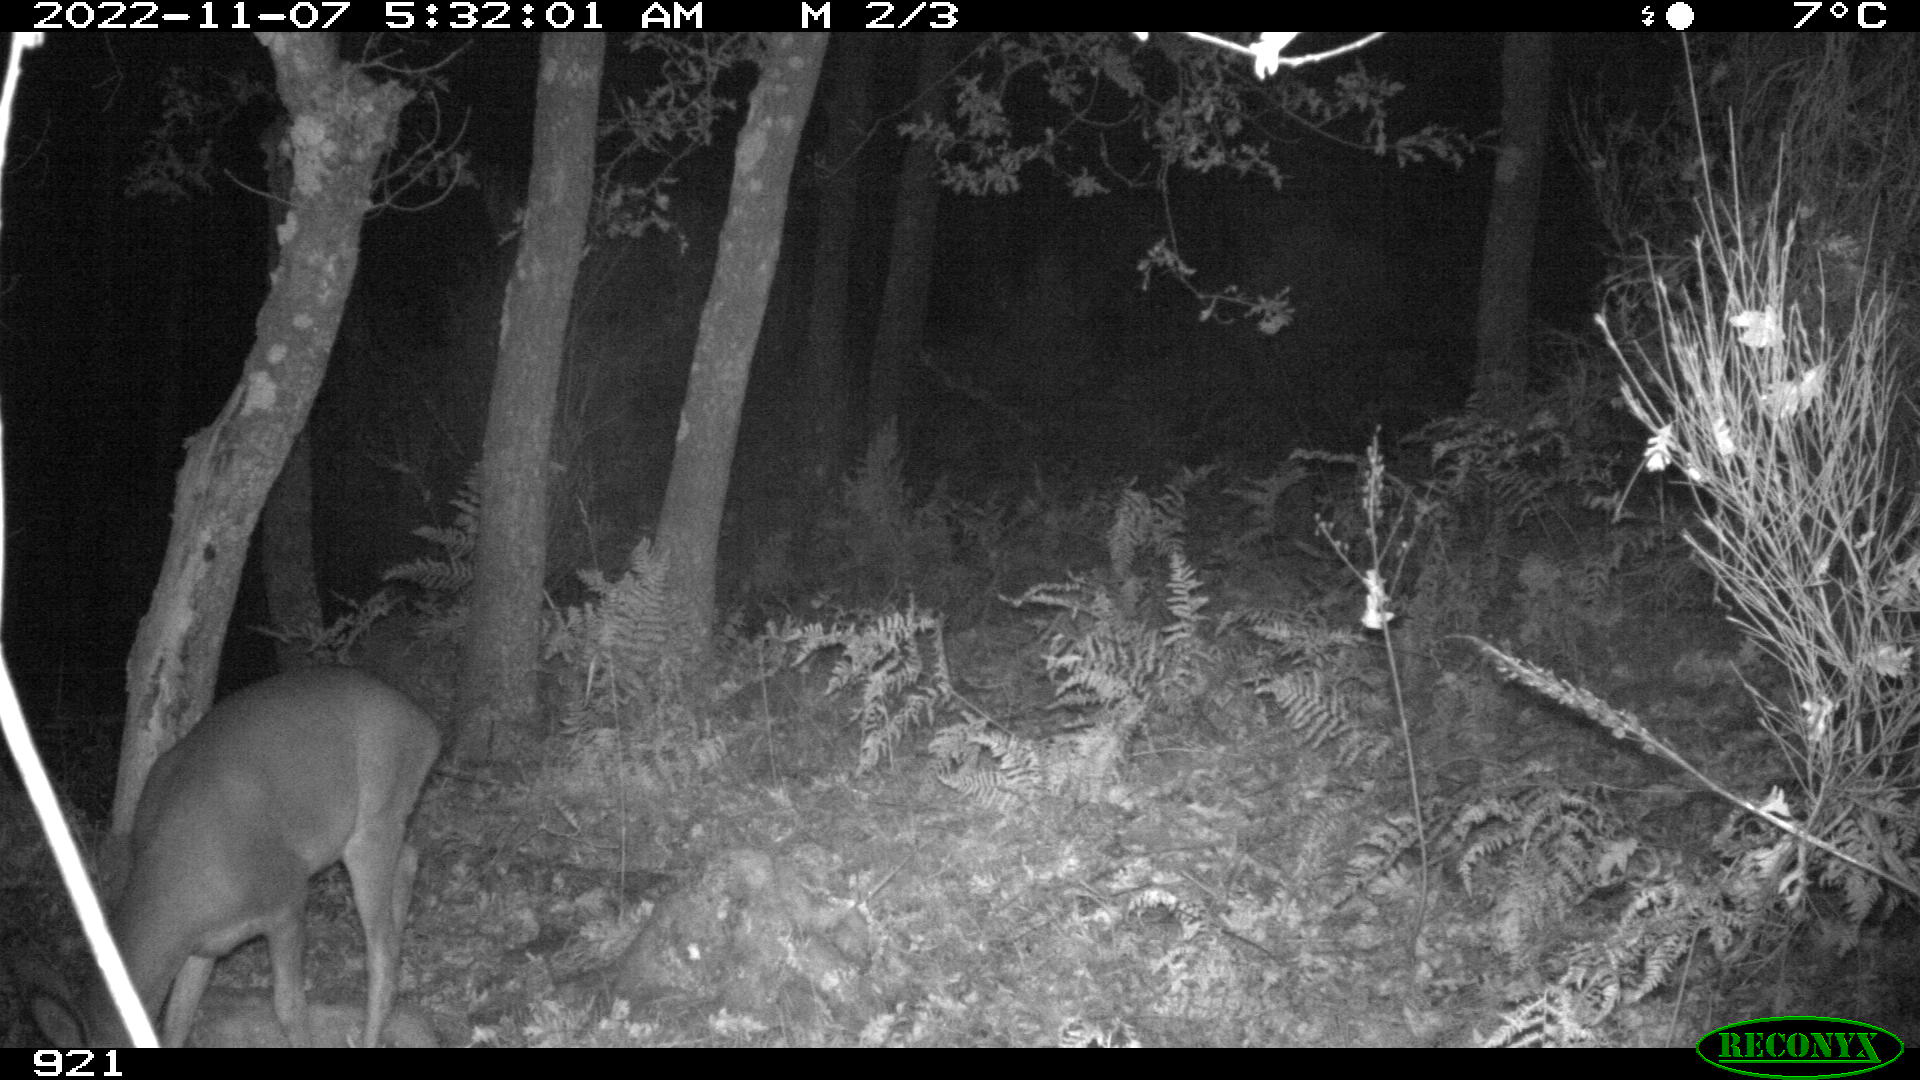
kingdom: Animalia
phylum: Chordata
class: Mammalia
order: Artiodactyla
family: Cervidae
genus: Capreolus
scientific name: Capreolus capreolus
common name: Western roe deer
